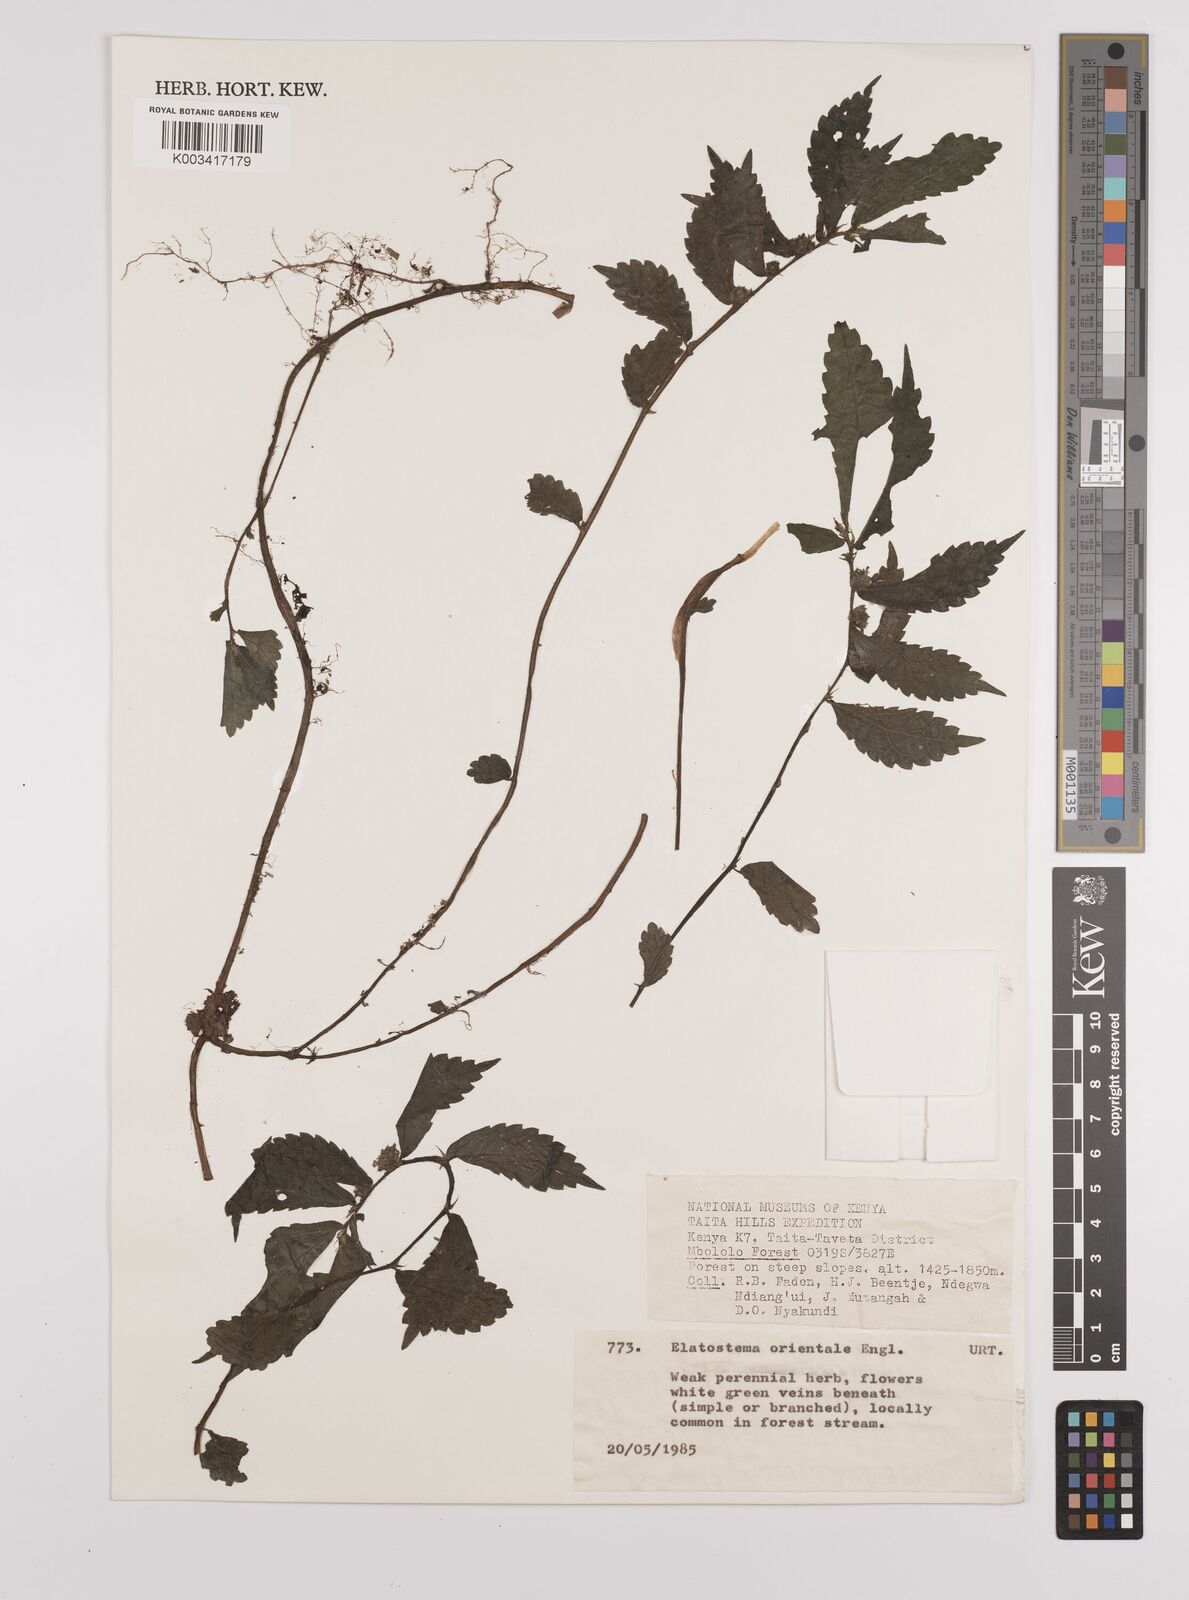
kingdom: Plantae
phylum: Tracheophyta
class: Magnoliopsida
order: Rosales
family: Urticaceae
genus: Elatostema
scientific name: Elatostema monticola
